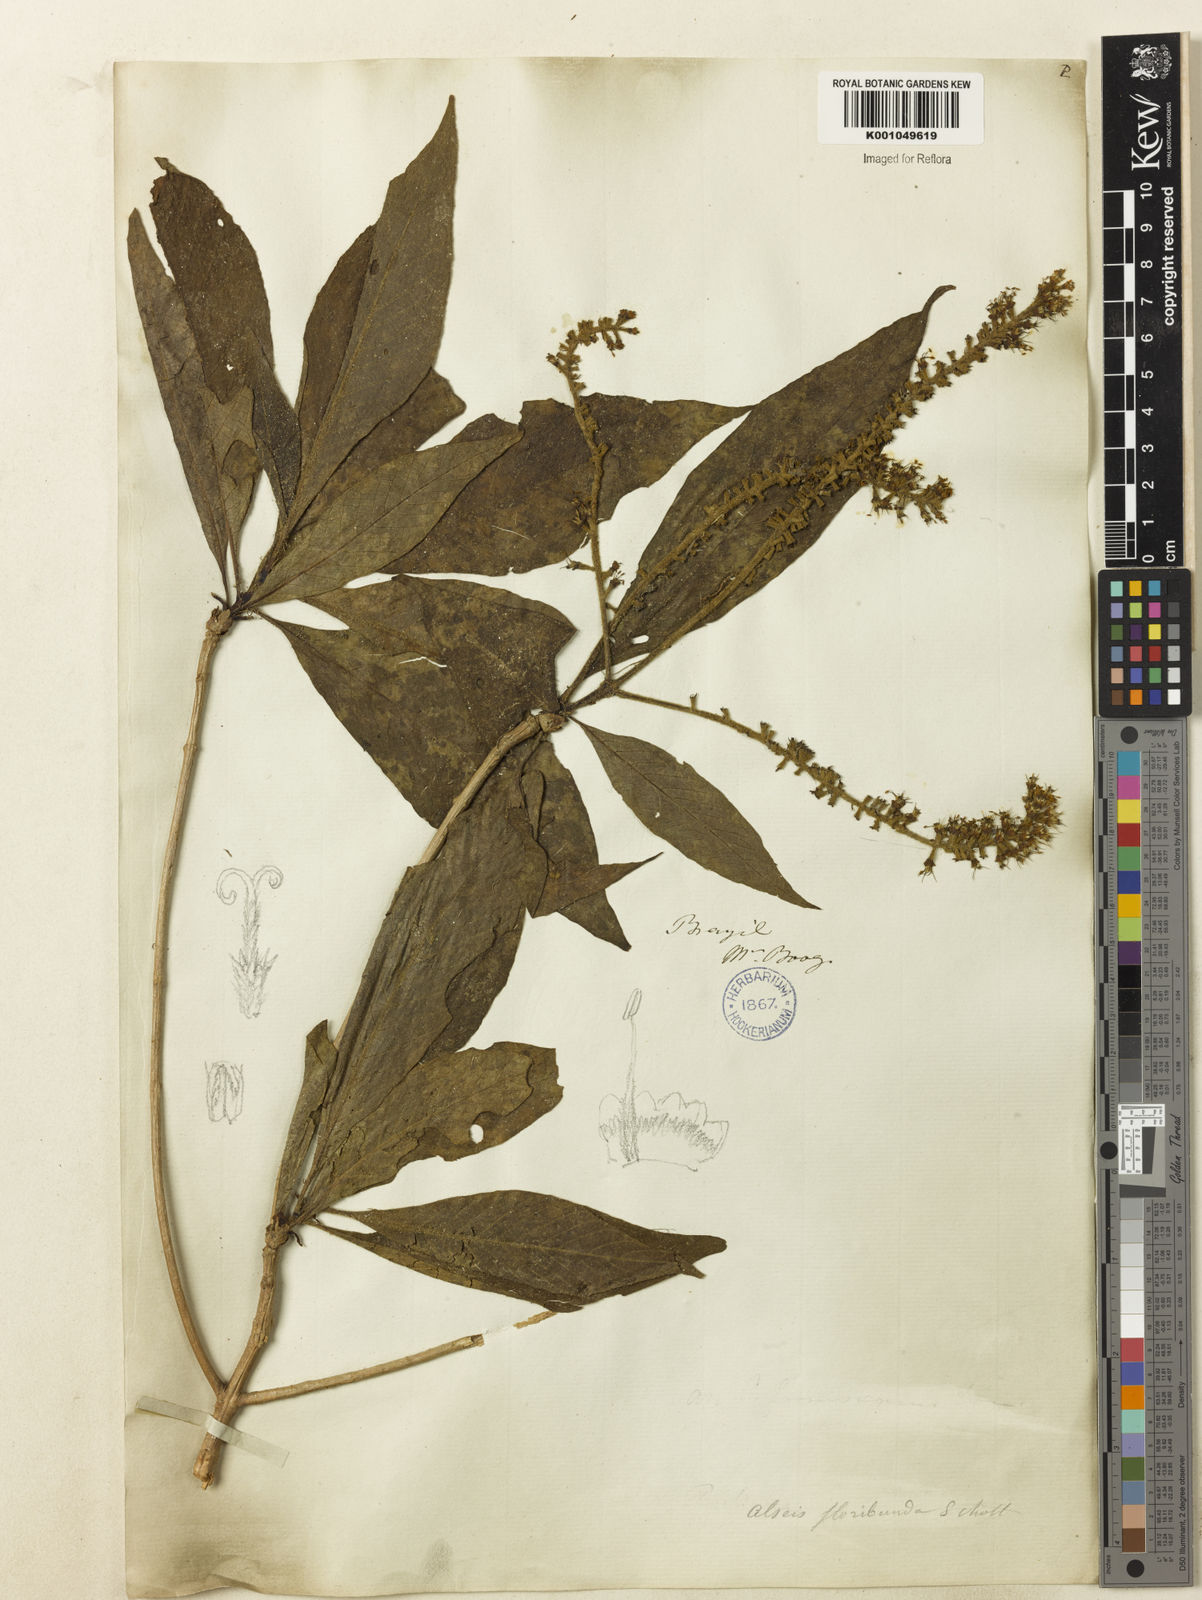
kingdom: Plantae
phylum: Tracheophyta
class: Magnoliopsida
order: Gentianales
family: Rubiaceae
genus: Alseis
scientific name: Alseis floribunda
